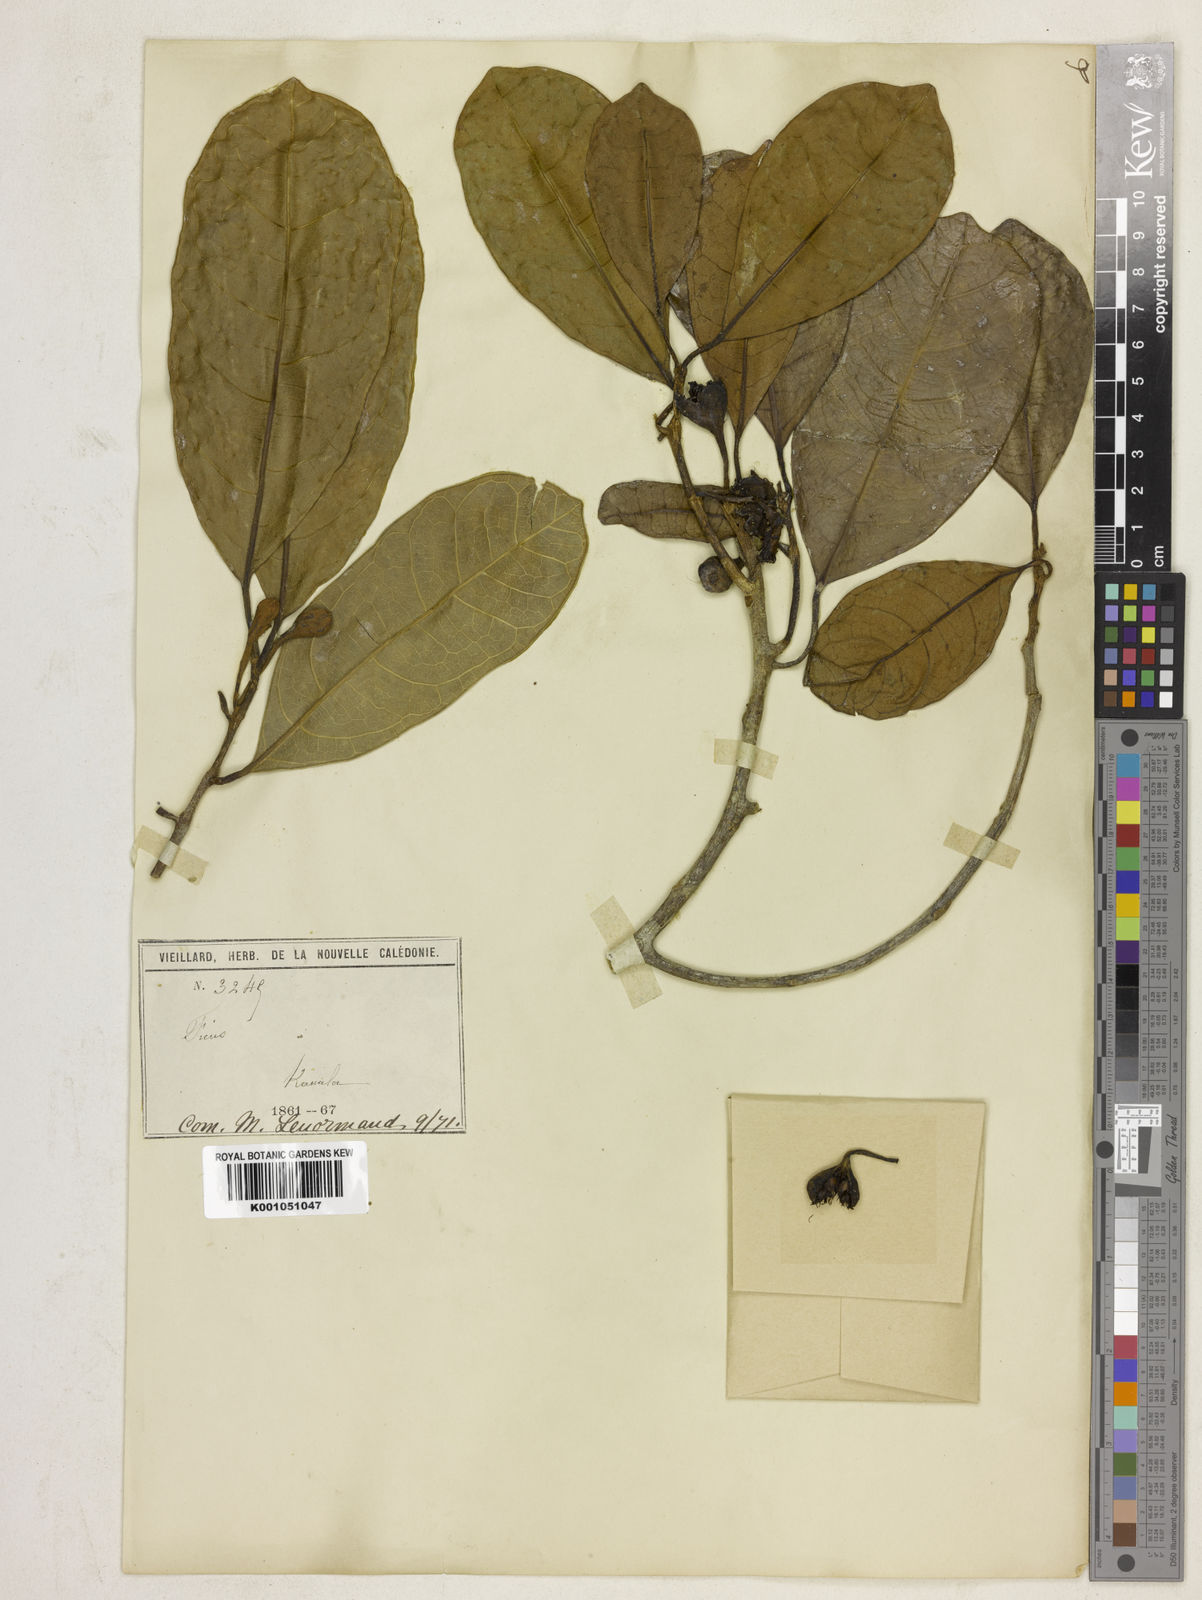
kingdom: Plantae
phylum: Tracheophyta
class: Magnoliopsida
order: Rosales
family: Moraceae
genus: Sparattosyce
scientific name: Sparattosyce dioica
